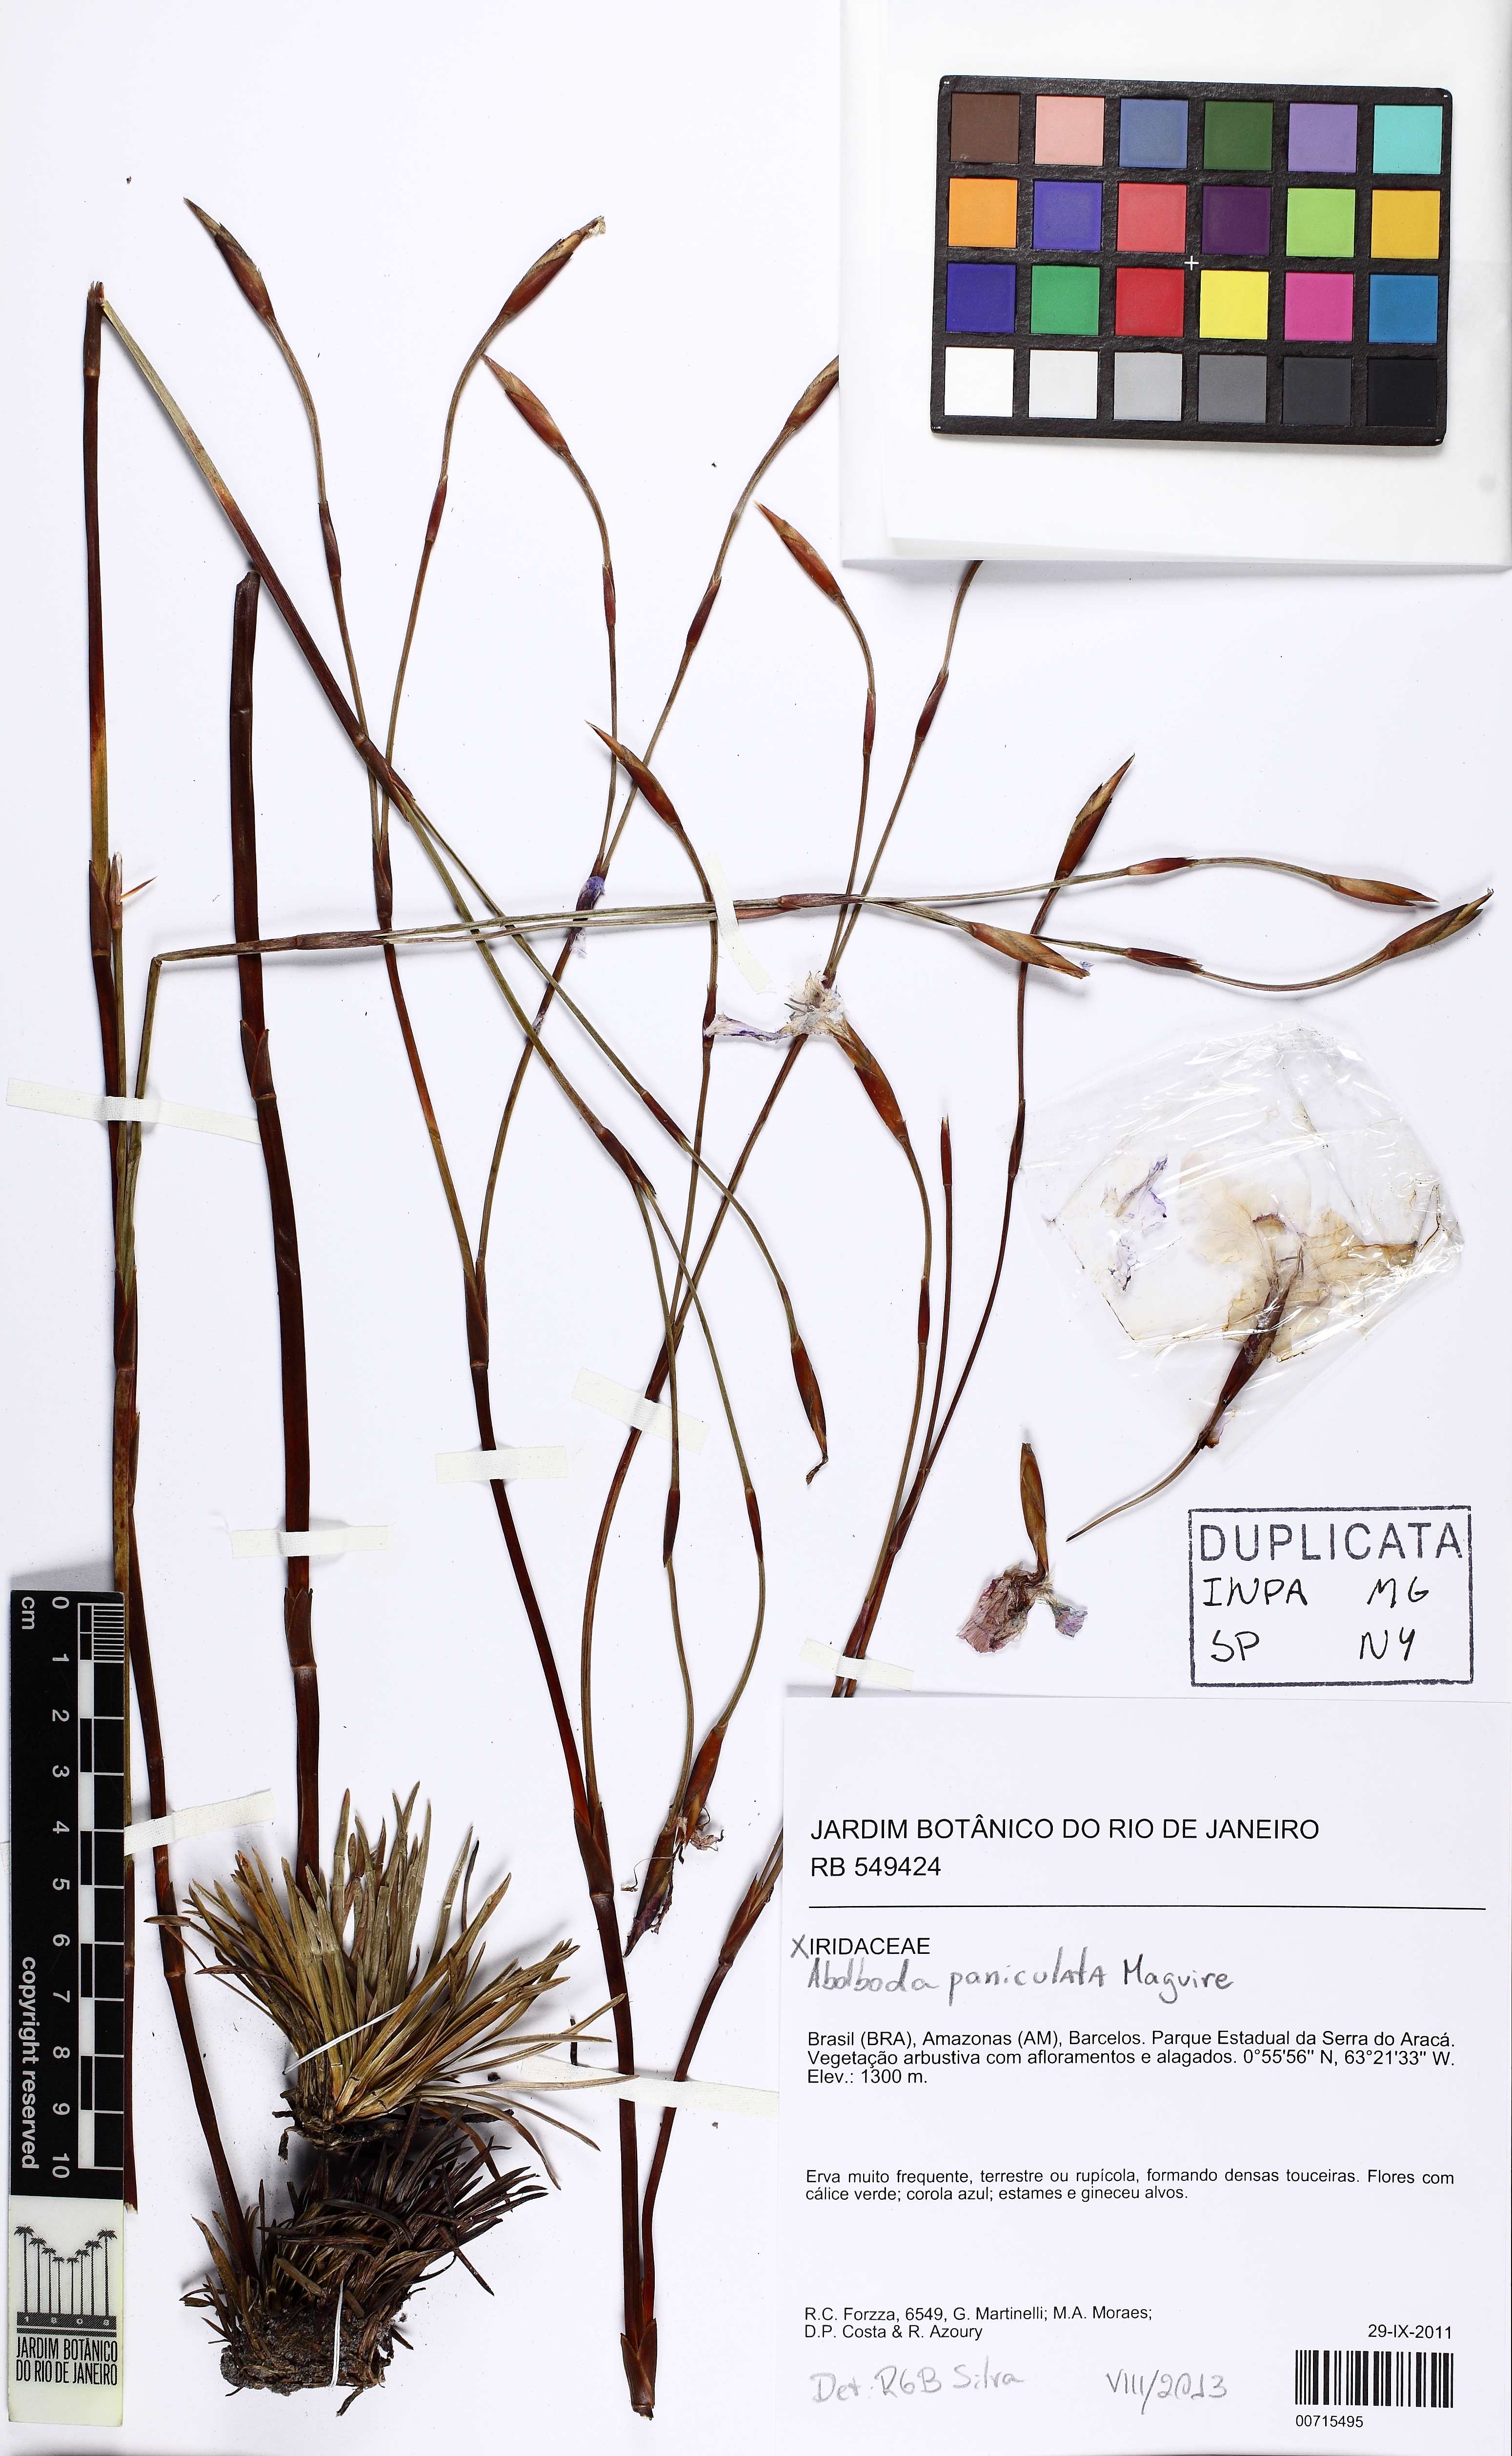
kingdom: Plantae
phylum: Tracheophyta
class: Liliopsida
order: Poales
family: Xyridaceae
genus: Abolboda
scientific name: Abolboda paniculata
